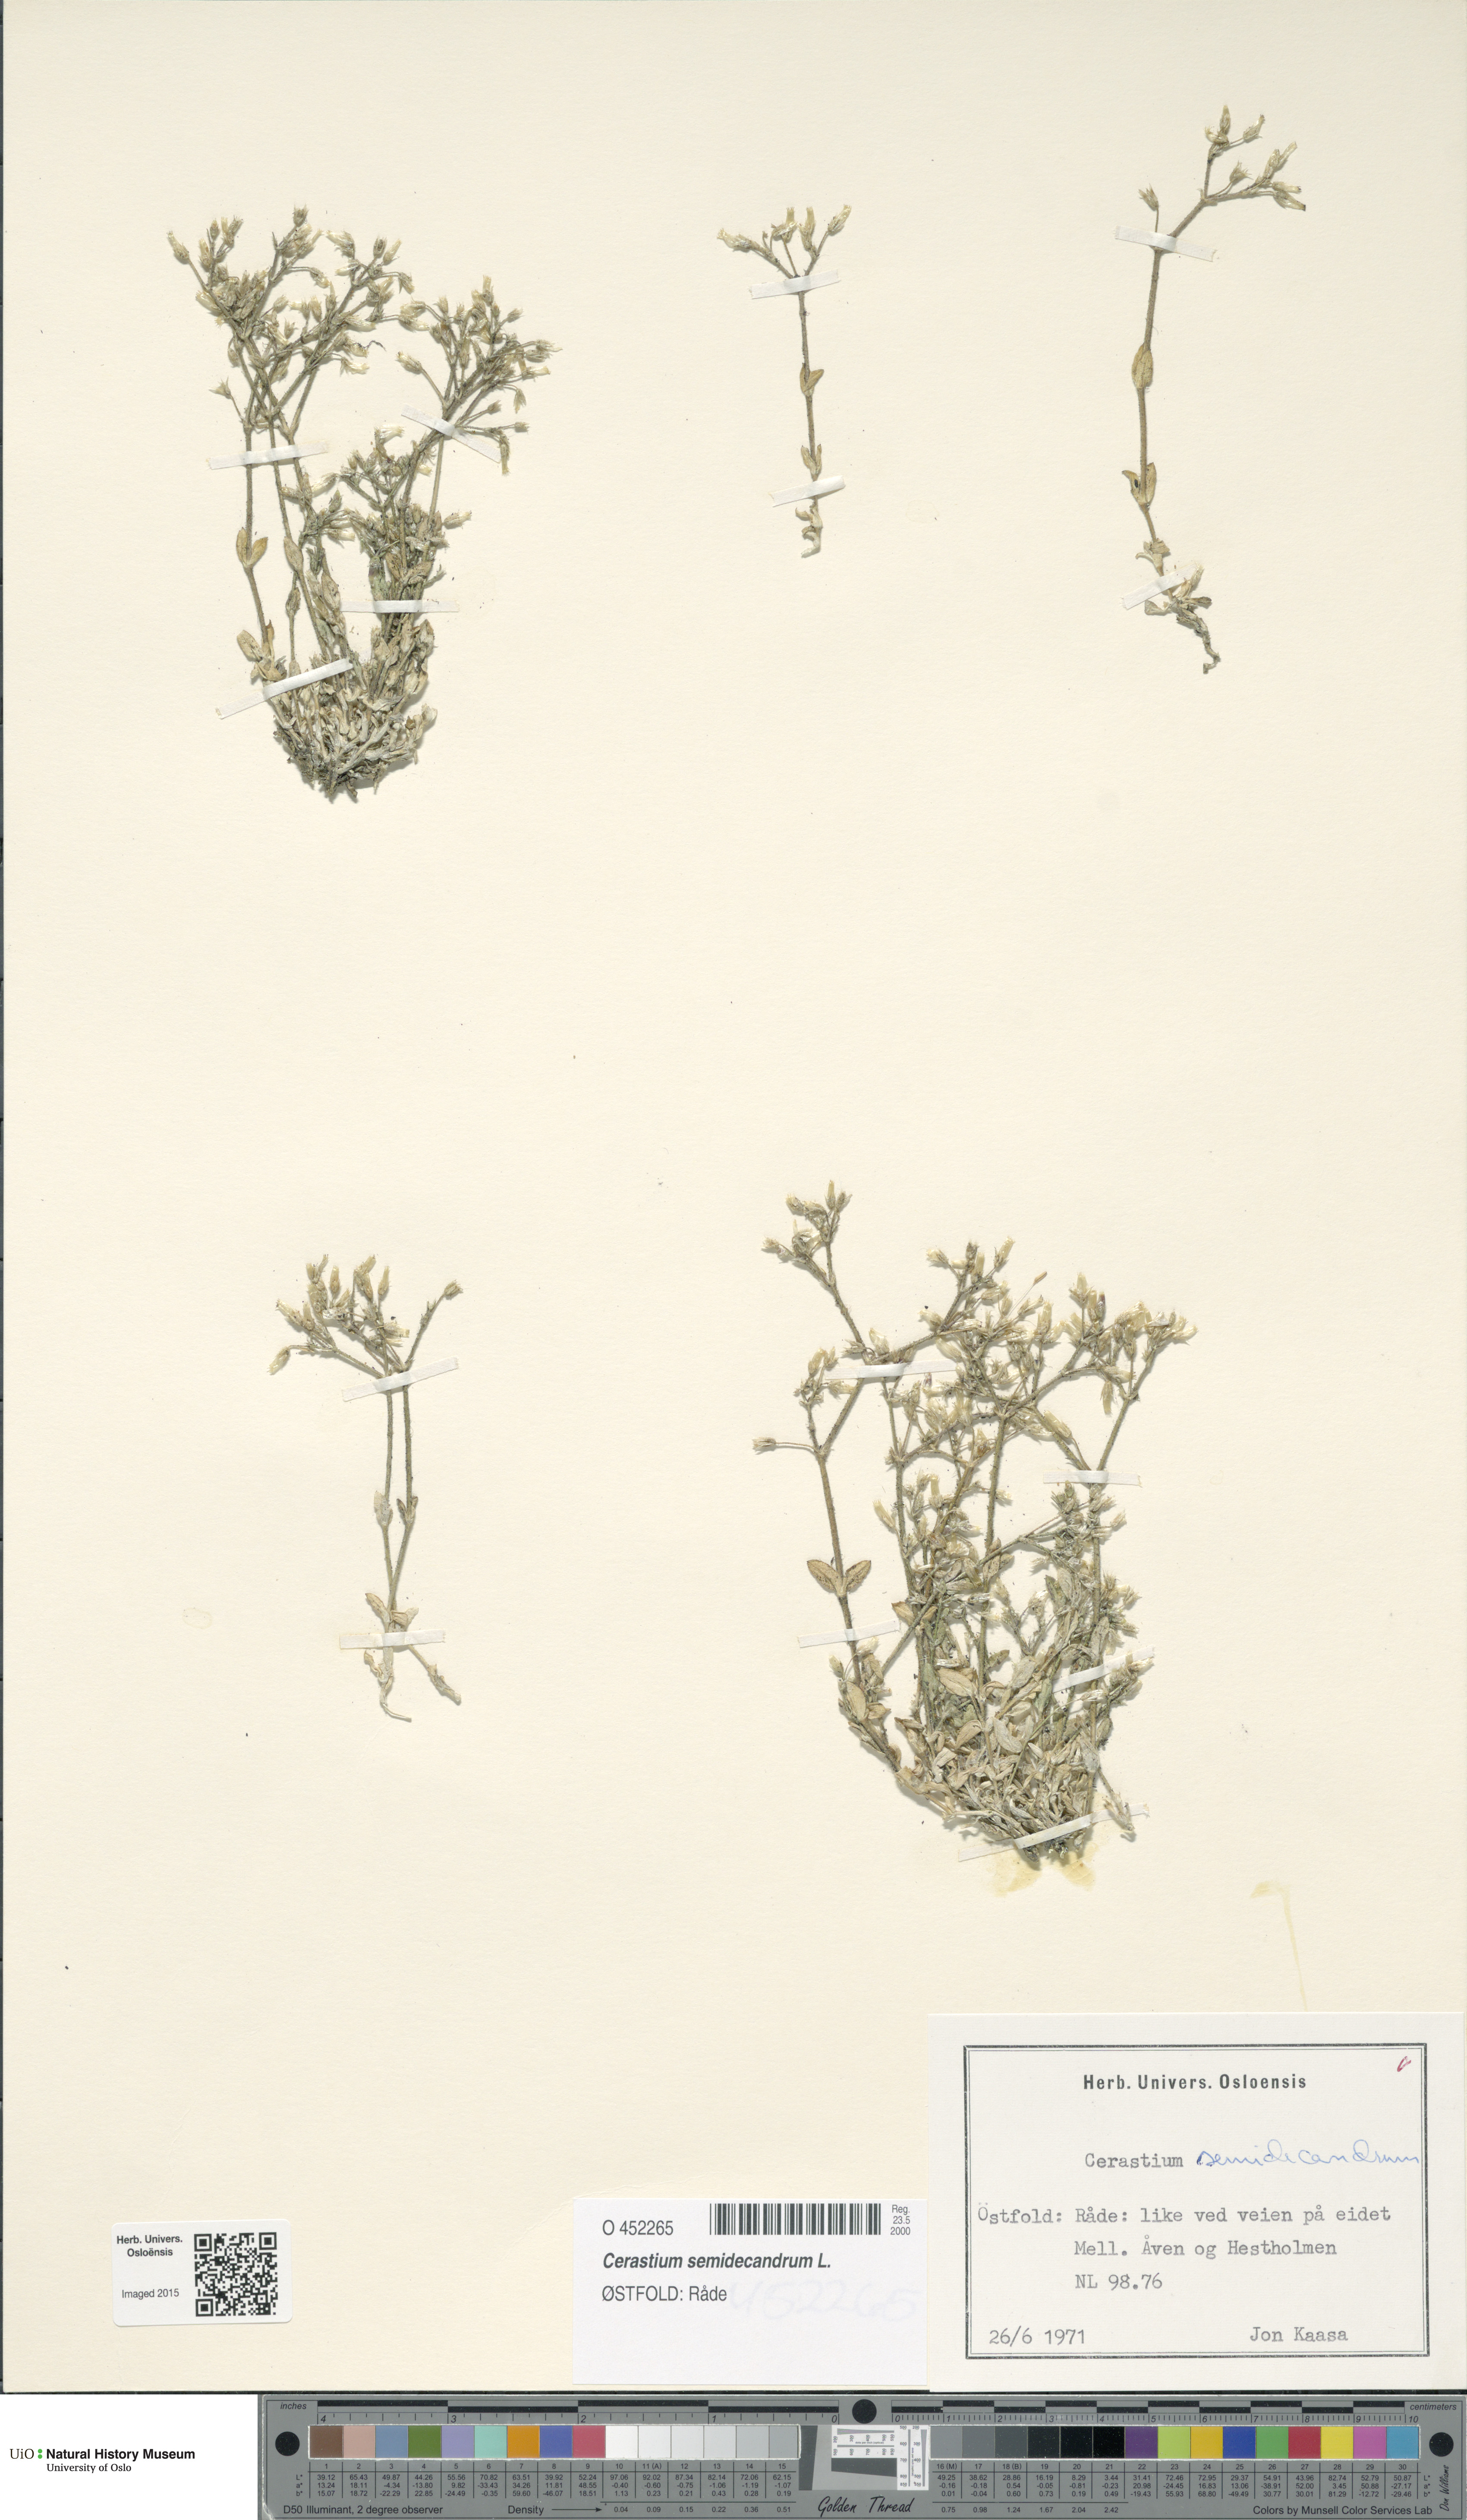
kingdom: Plantae
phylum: Tracheophyta
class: Magnoliopsida
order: Caryophyllales
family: Caryophyllaceae
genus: Cerastium
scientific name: Cerastium semidecandrum
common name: Little mouse-ear
